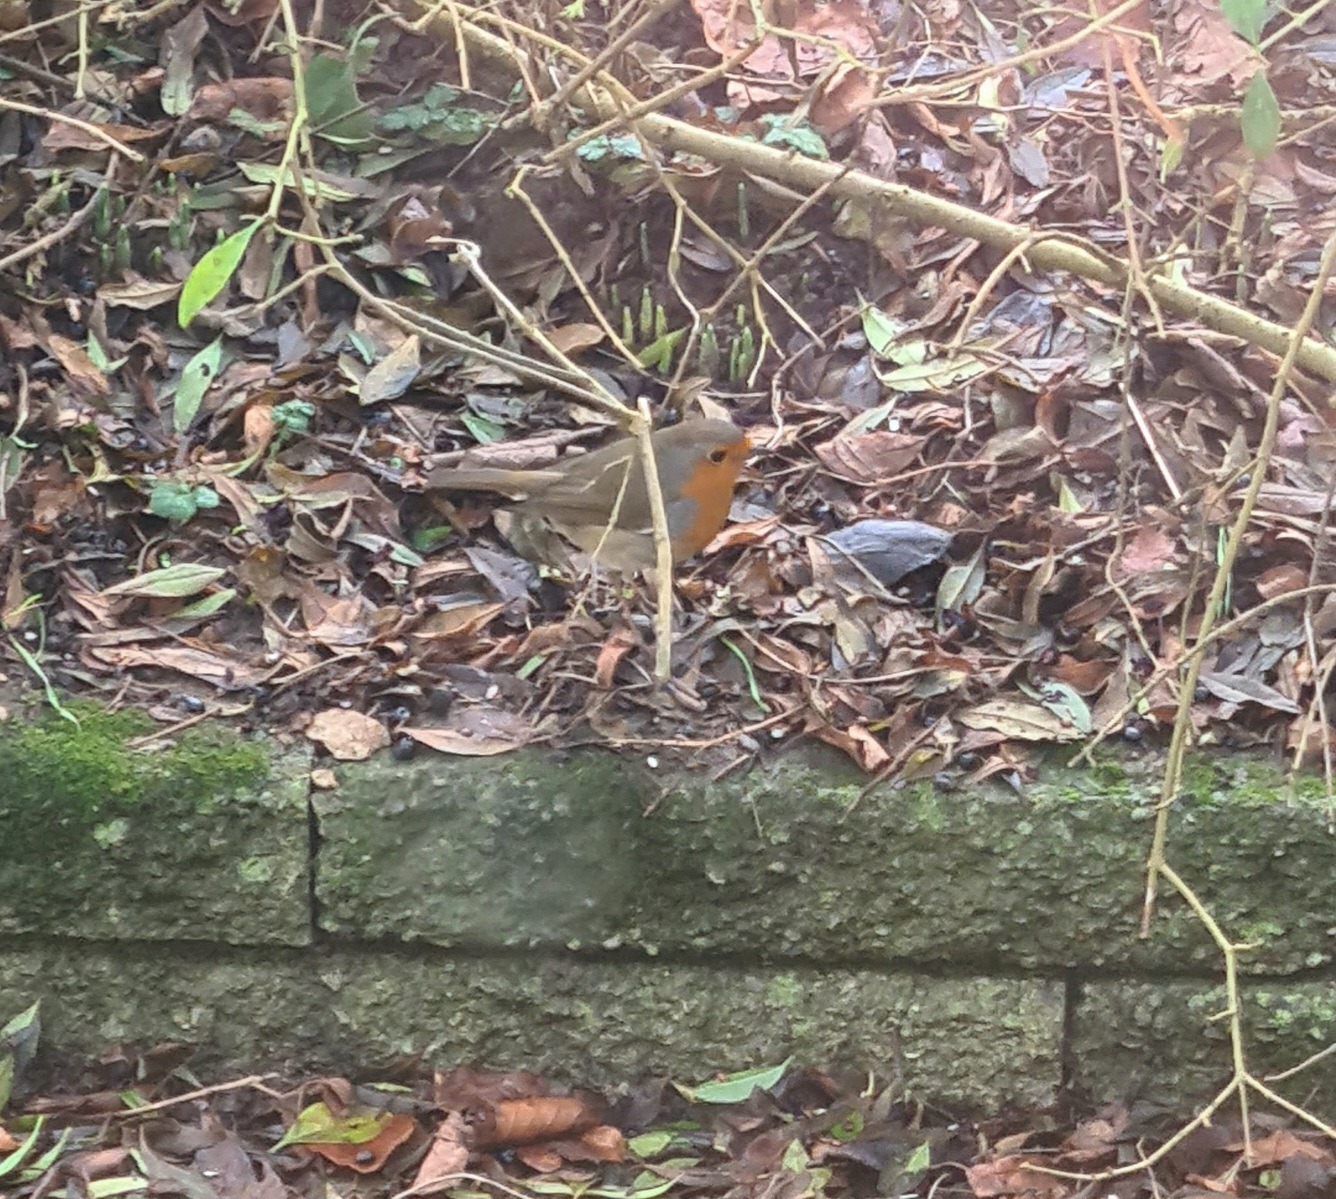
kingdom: Animalia
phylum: Chordata
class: Aves
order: Passeriformes
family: Muscicapidae
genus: Erithacus
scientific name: Erithacus rubecula
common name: Rødhals/rødkælk
